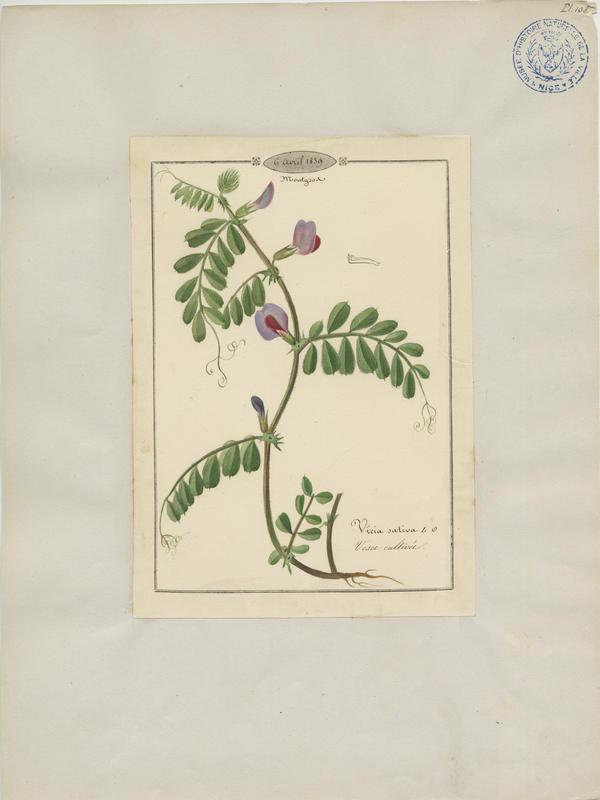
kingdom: Plantae
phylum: Tracheophyta
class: Magnoliopsida
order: Fabales
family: Fabaceae
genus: Vicia
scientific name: Vicia sativa
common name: Garden vetch
